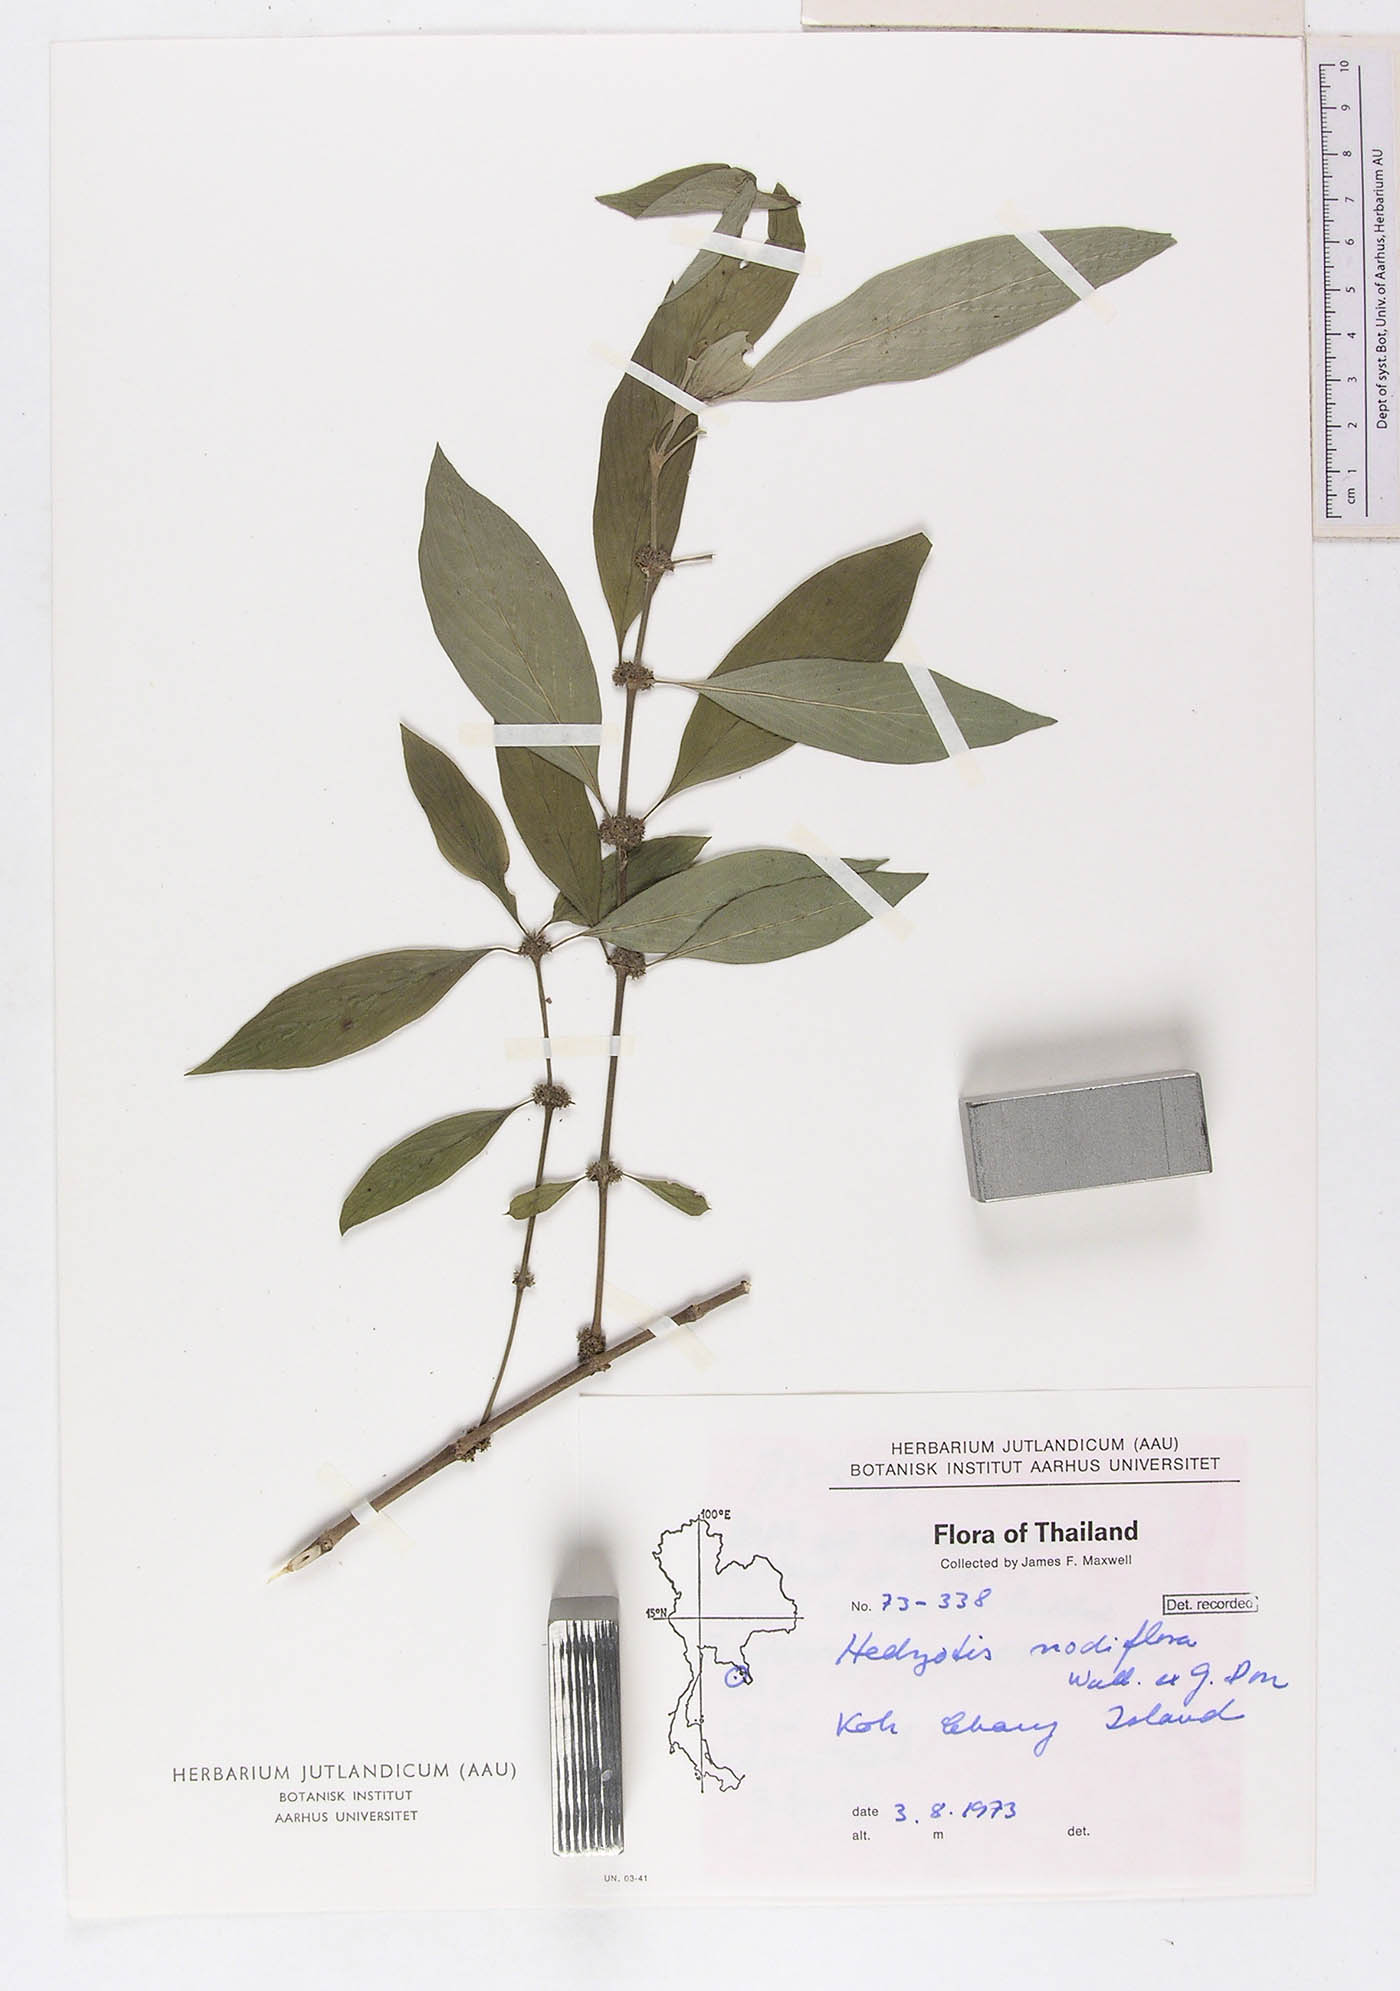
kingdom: Plantae
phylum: Tracheophyta
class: Magnoliopsida
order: Gentianales
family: Rubiaceae
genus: Hedyotis
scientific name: Hedyotis nodiflora
